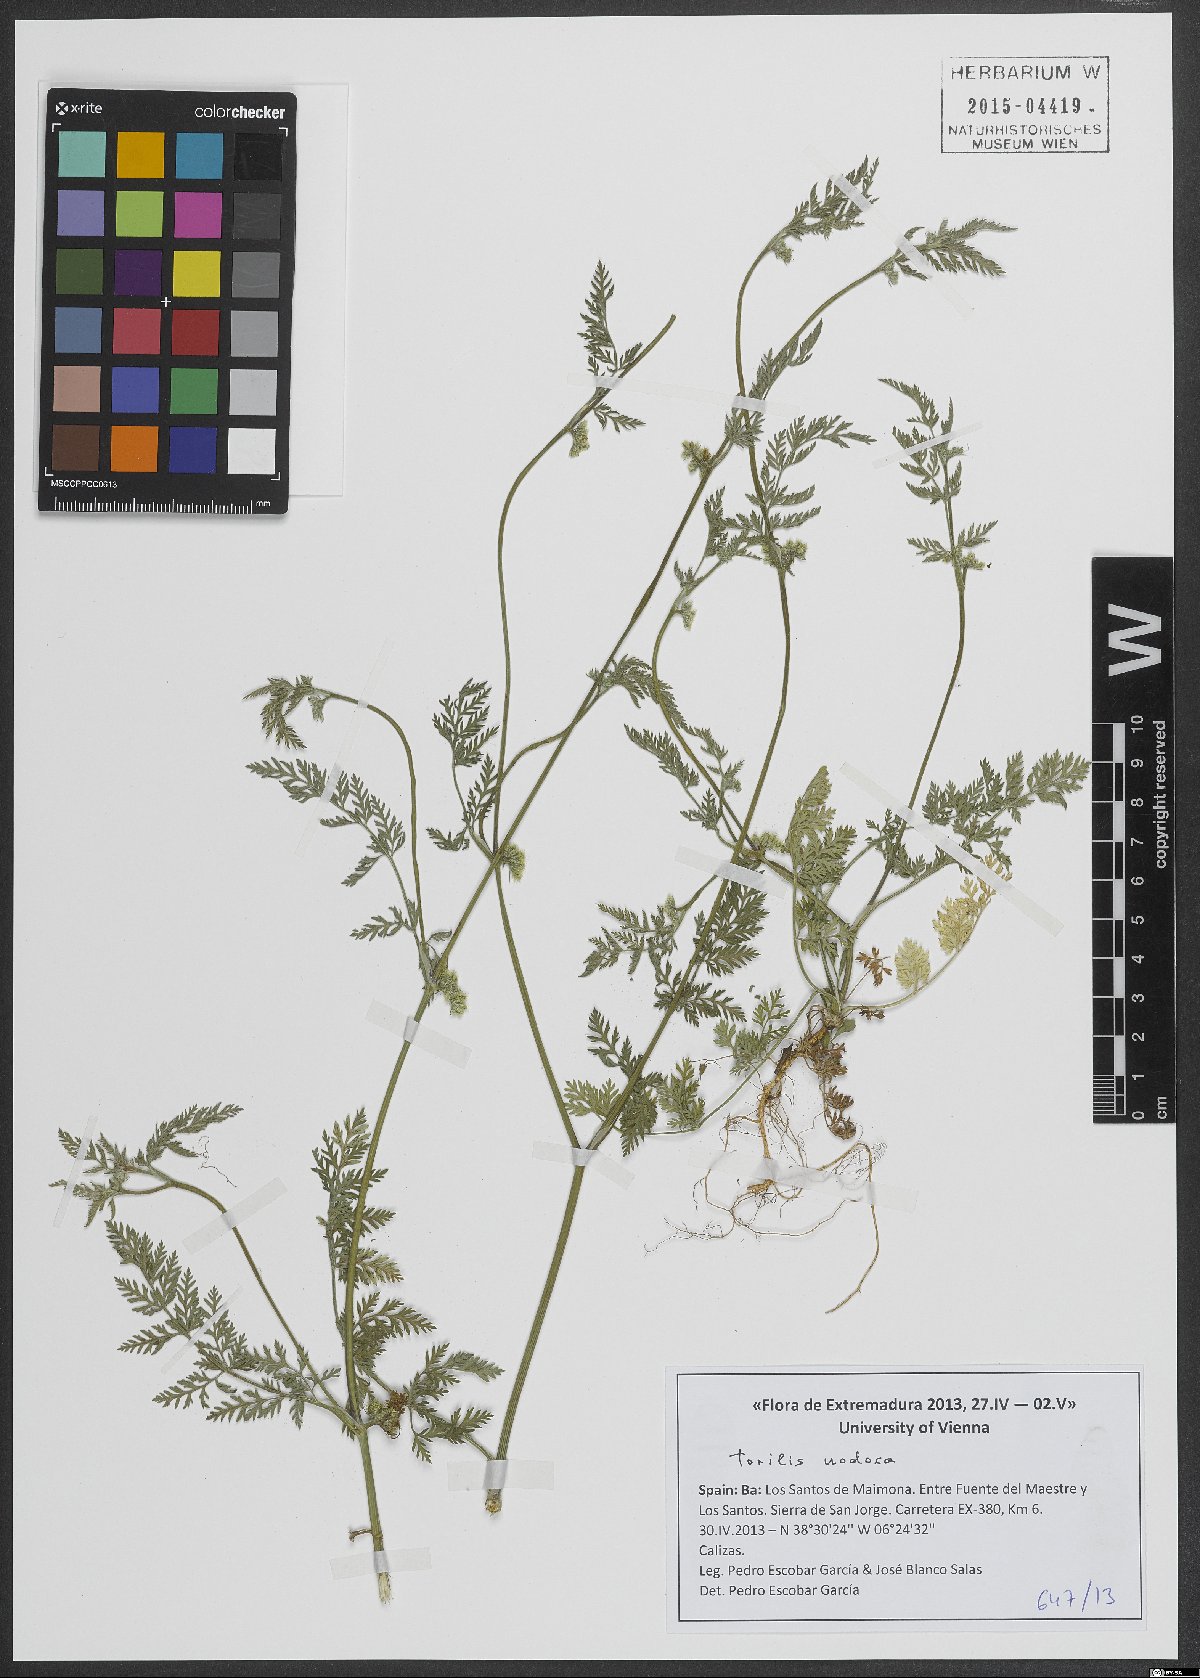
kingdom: Plantae
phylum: Tracheophyta
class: Magnoliopsida
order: Apiales
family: Apiaceae
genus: Torilis
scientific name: Torilis nodosa
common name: Knotted hedge-parsley
